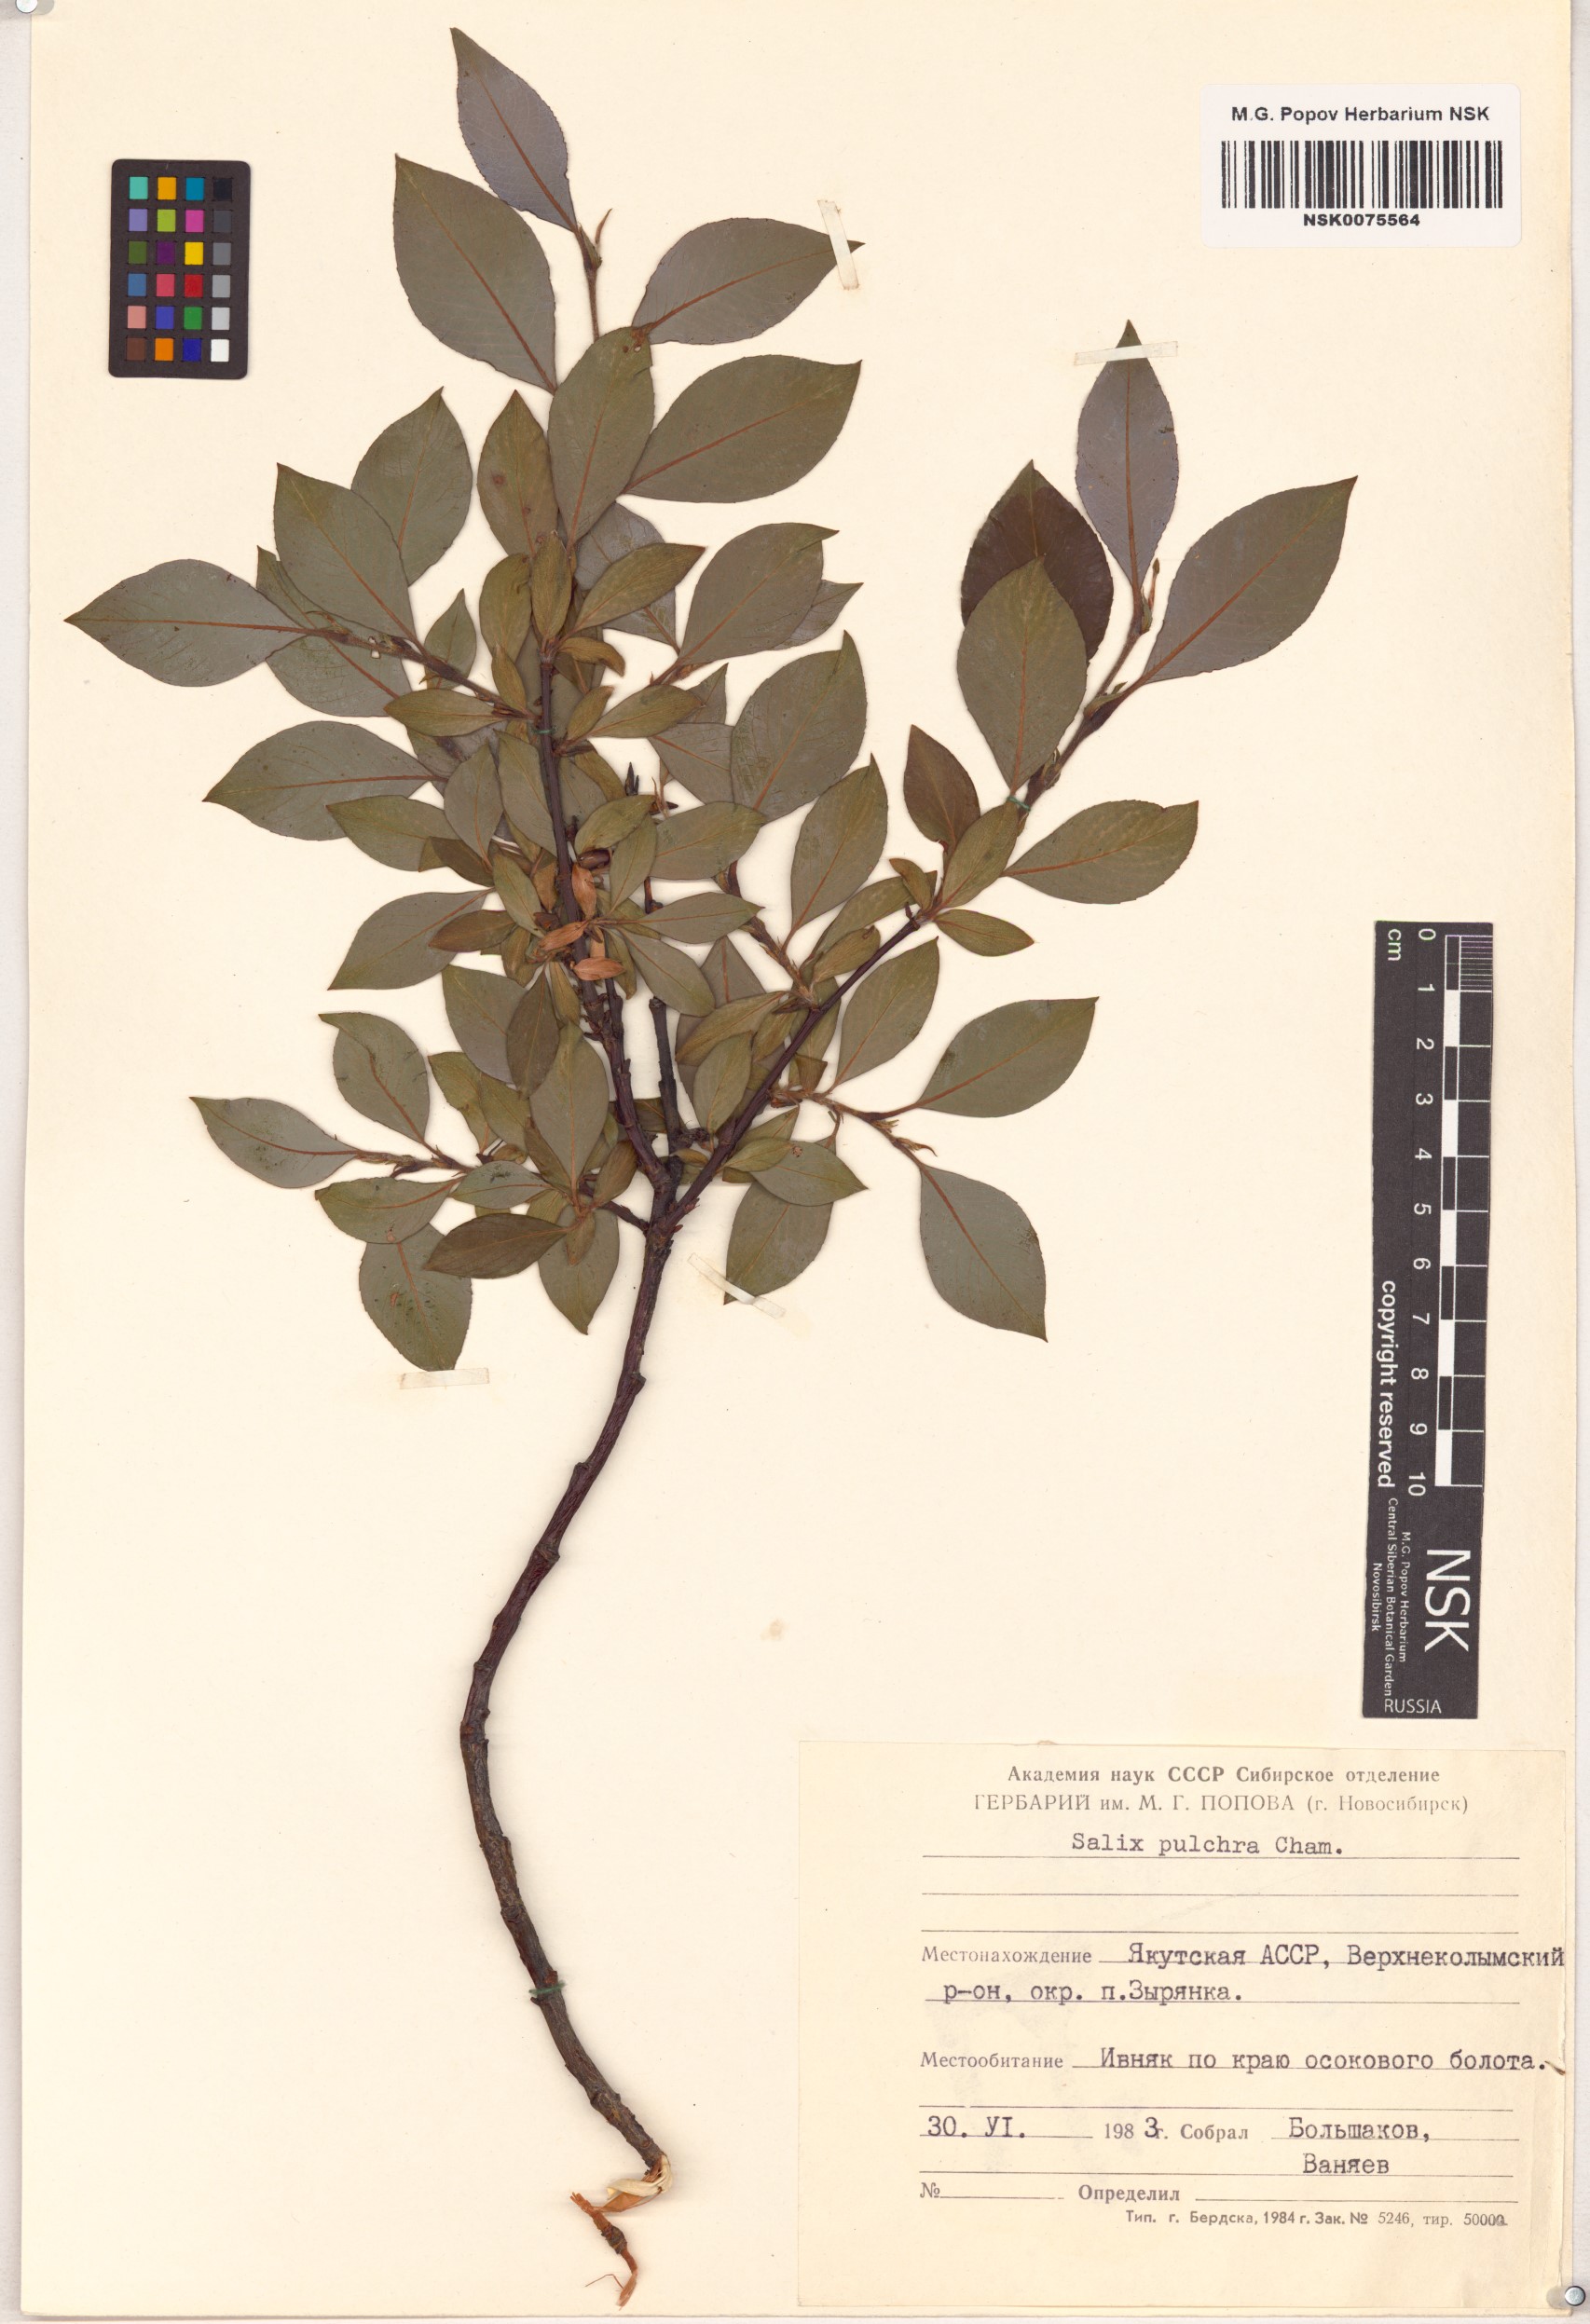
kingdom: Plantae
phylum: Tracheophyta
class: Magnoliopsida
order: Malpighiales
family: Salicaceae
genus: Salix
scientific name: Salix pulchra
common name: Diamond-leaved willow
